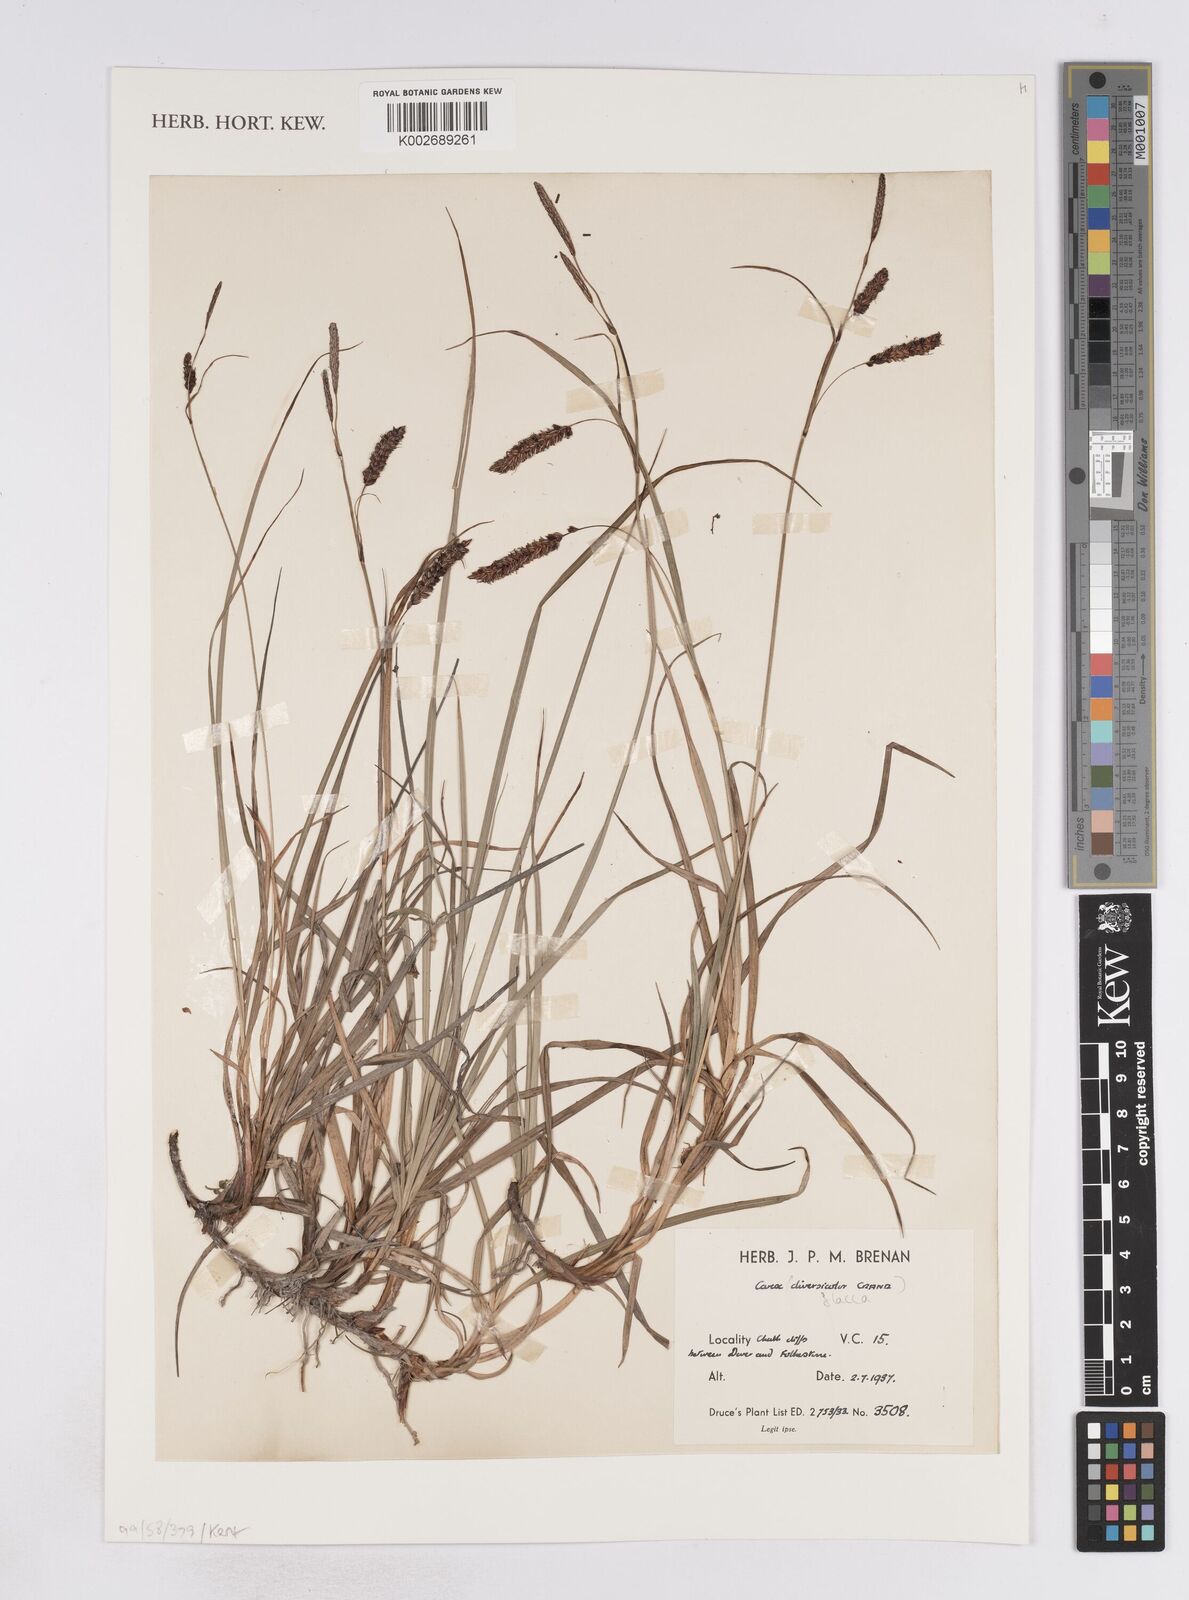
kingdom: Plantae
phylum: Tracheophyta
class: Liliopsida
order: Poales
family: Cyperaceae
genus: Carex
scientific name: Carex flacca
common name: Glaucous sedge
